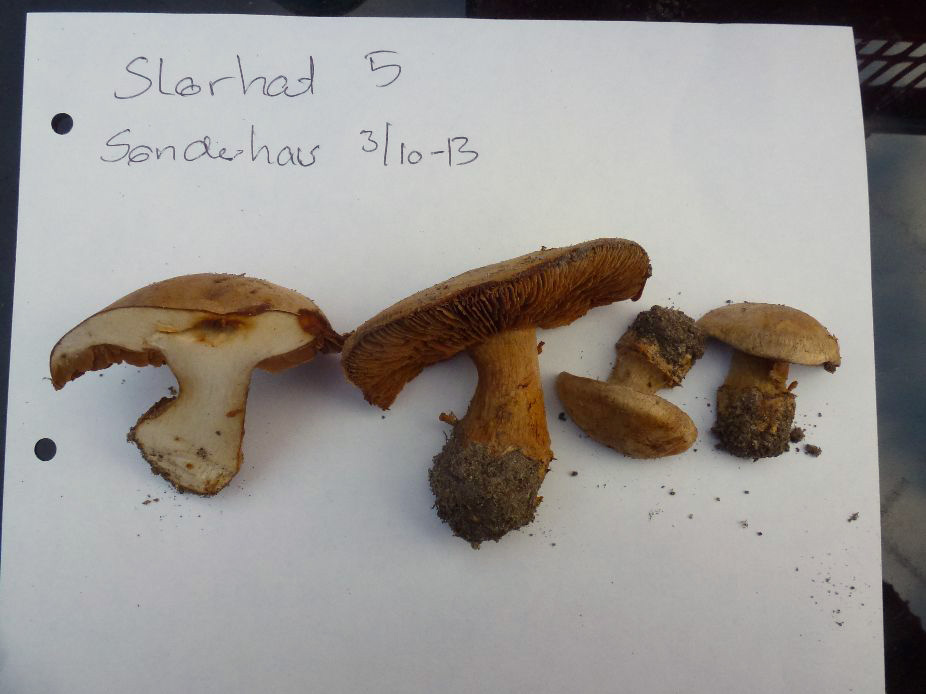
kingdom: Fungi
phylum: Basidiomycota
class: Agaricomycetes
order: Agaricales
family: Cortinariaceae
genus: Phlegmacium
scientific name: Phlegmacium luhmannii
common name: musegrå slørhat
